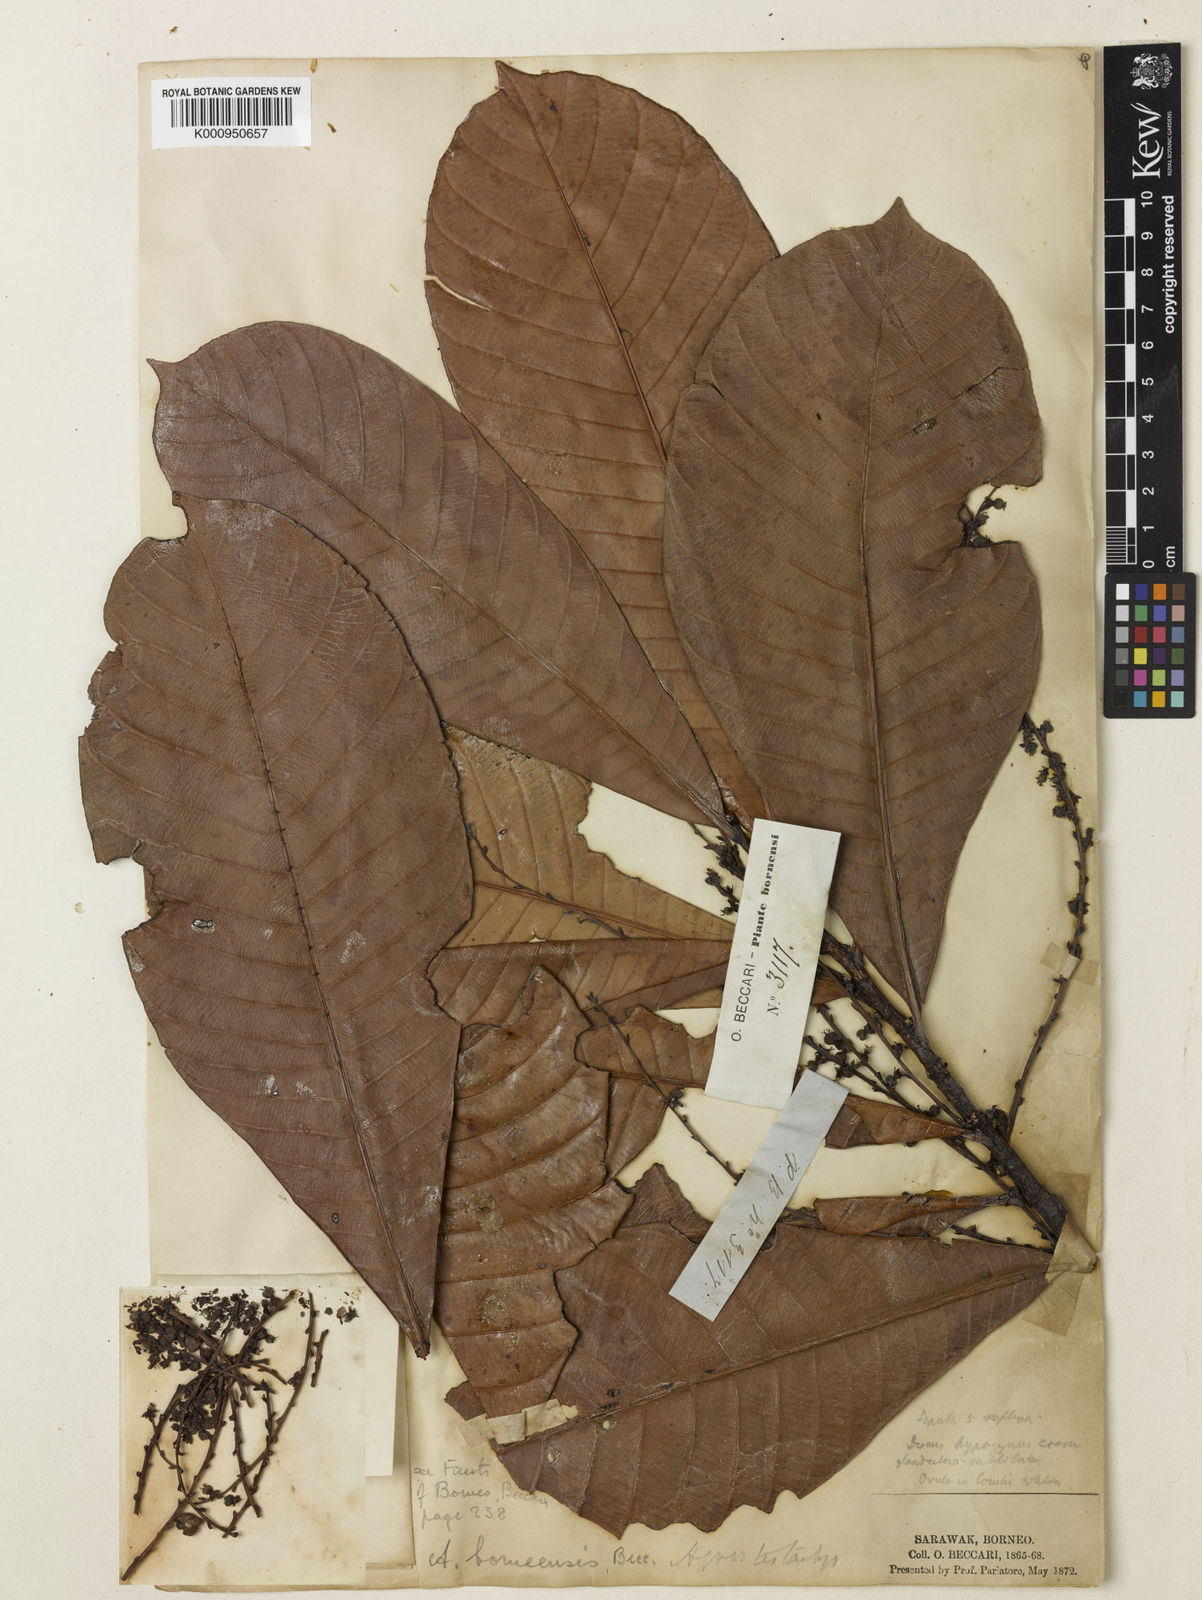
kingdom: Plantae
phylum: Tracheophyta
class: Magnoliopsida
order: Malpighiales
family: Euphorbiaceae
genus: Agrostistachys
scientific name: Agrostistachys
